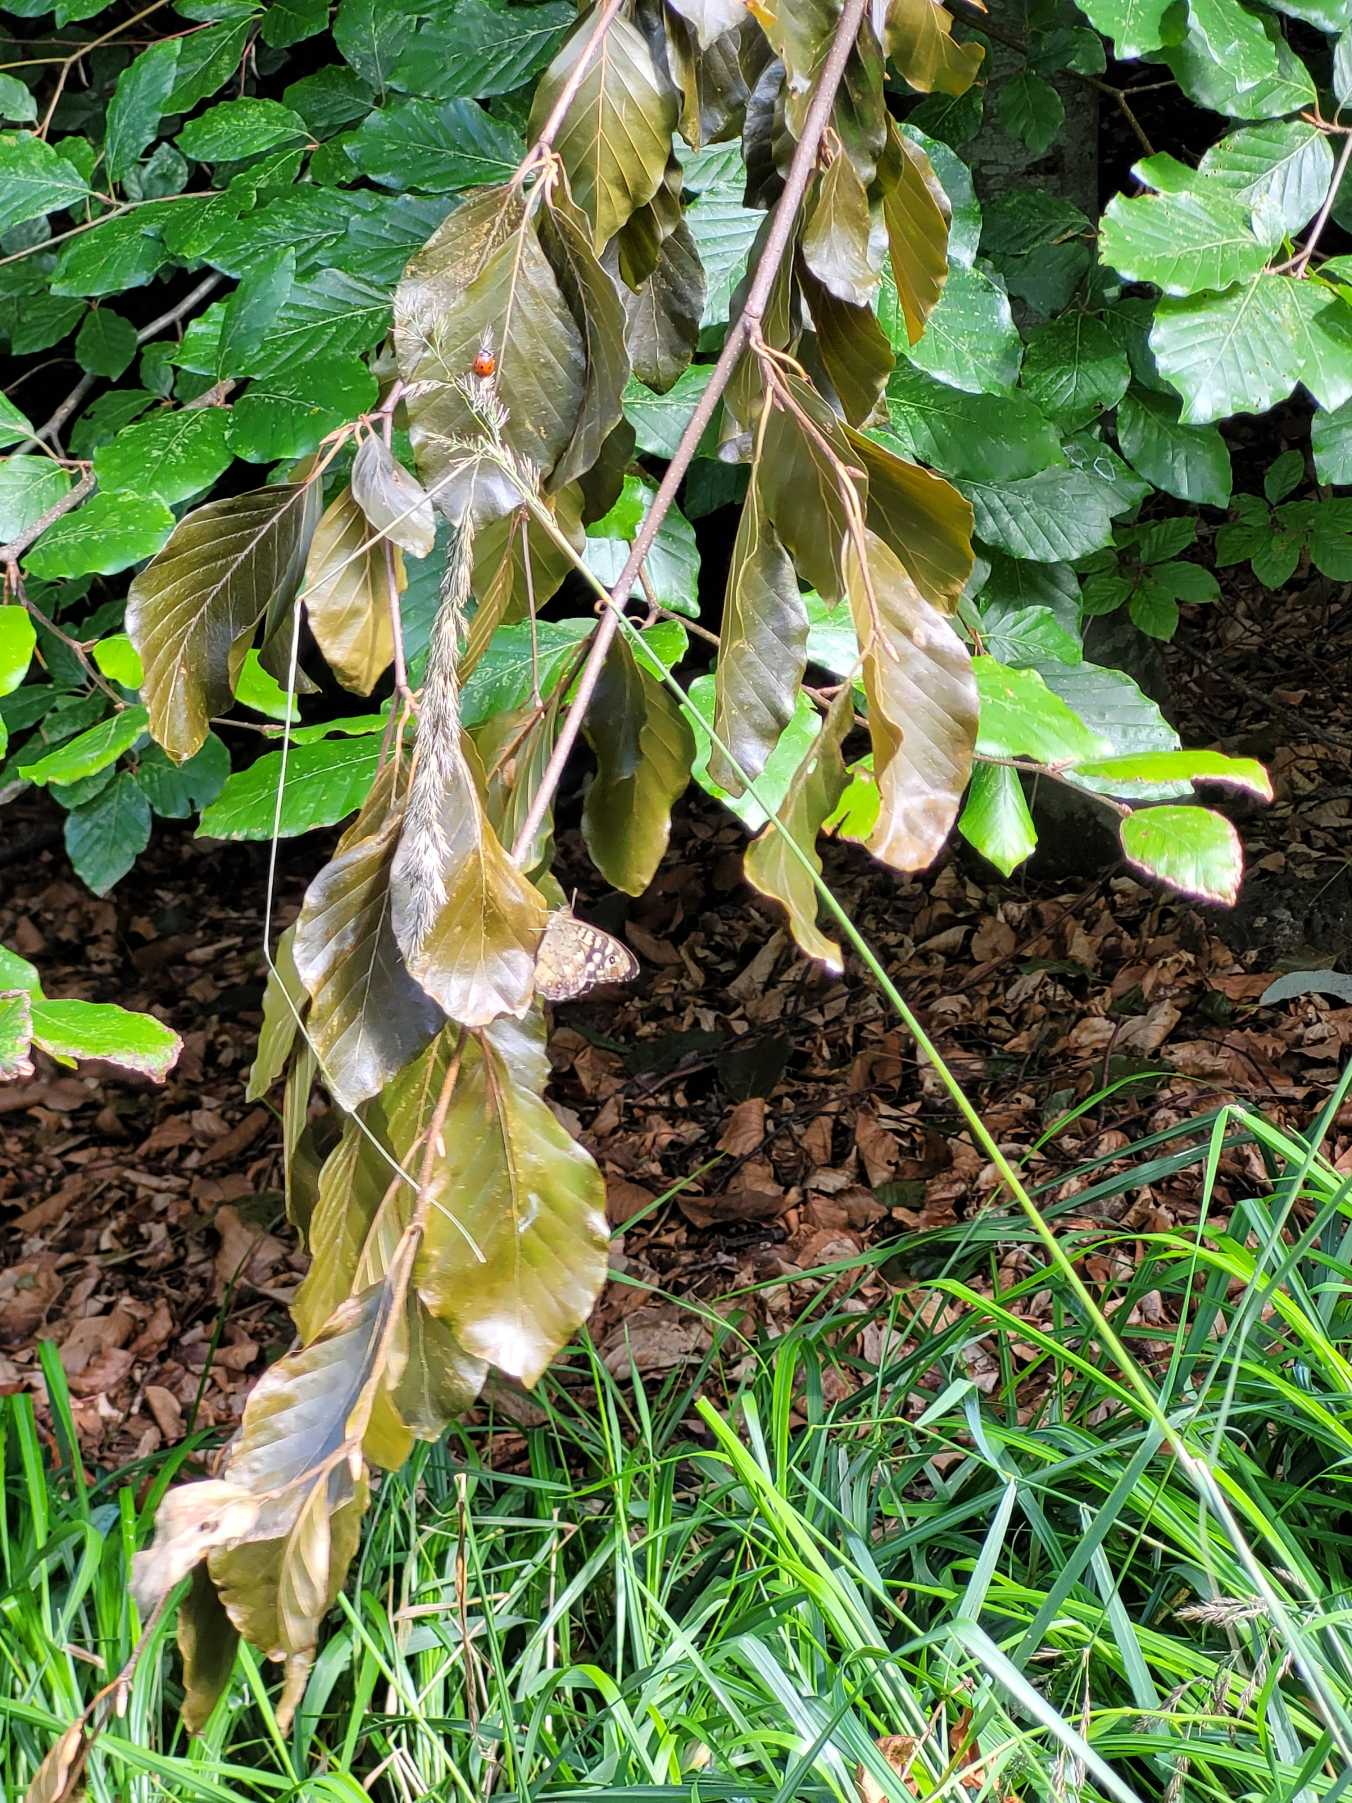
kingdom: Animalia
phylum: Arthropoda
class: Insecta
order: Lepidoptera
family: Nymphalidae
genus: Pararge
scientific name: Pararge aegeria
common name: Skovrandøje
